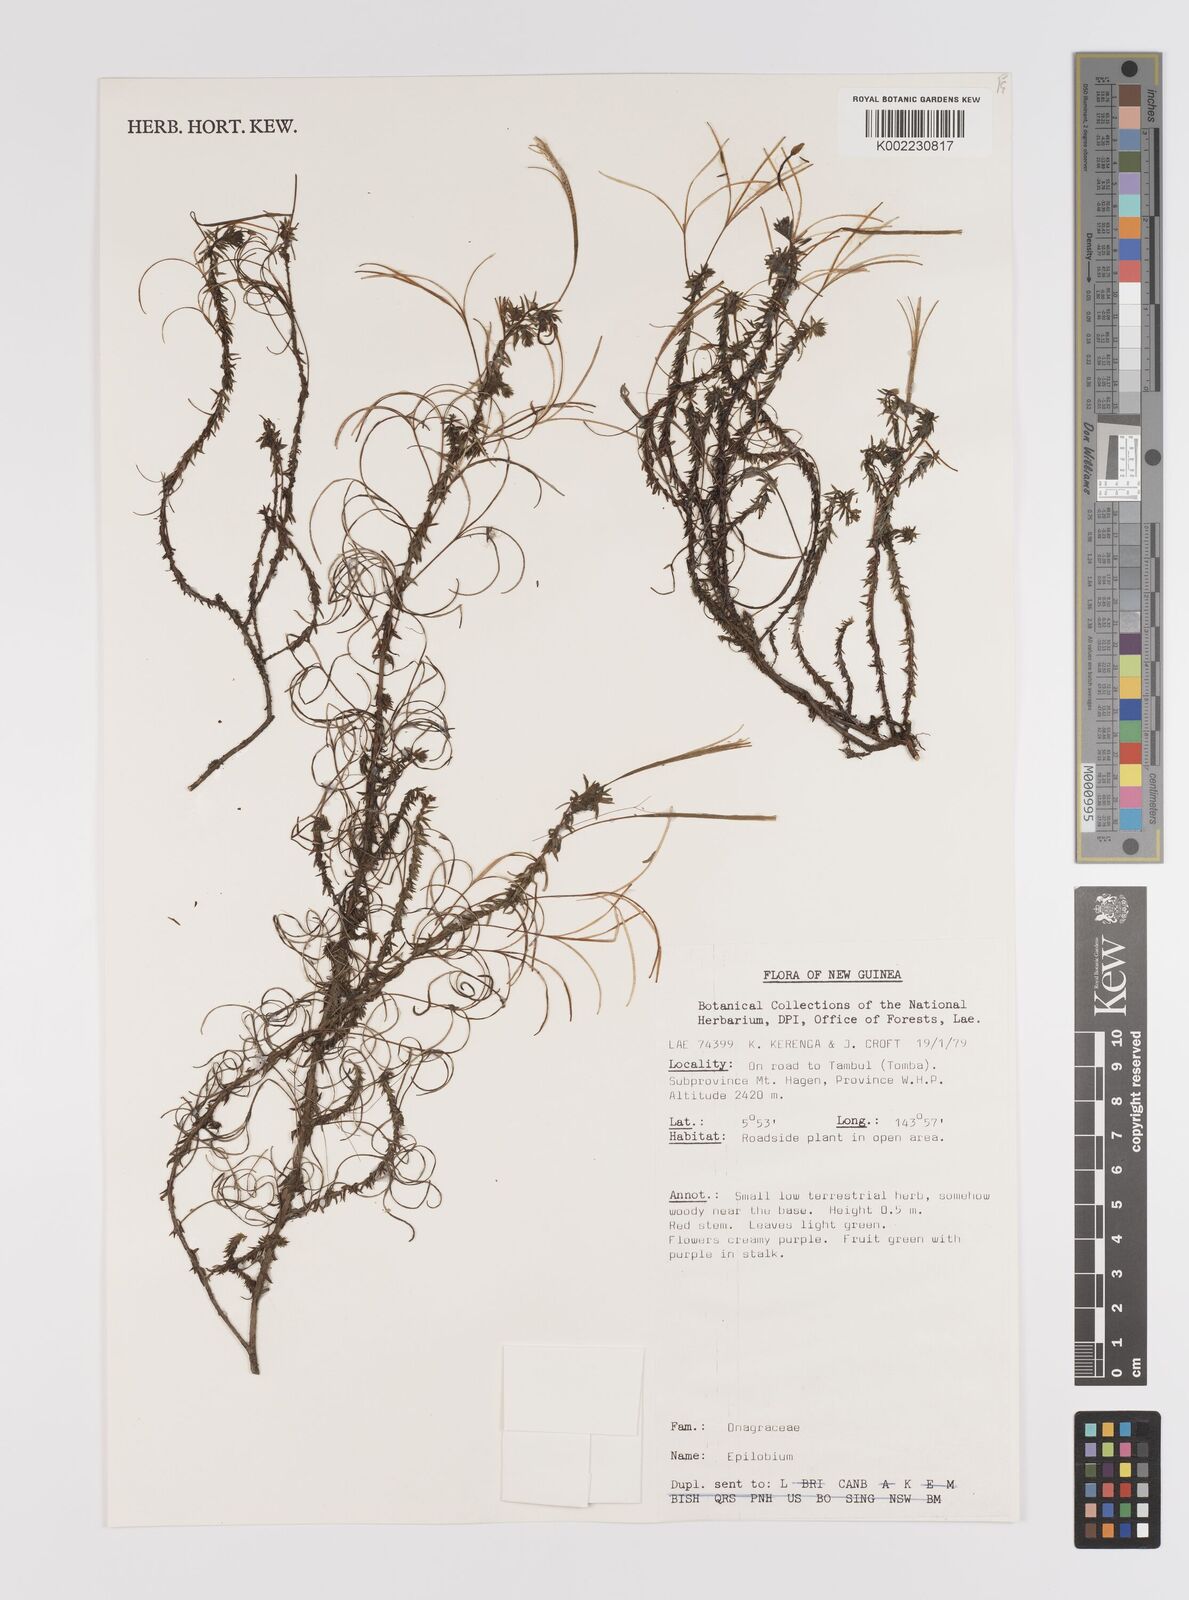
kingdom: Plantae
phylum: Tracheophyta
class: Magnoliopsida
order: Myrtales
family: Onagraceae
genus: Epilobium
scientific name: Epilobium
